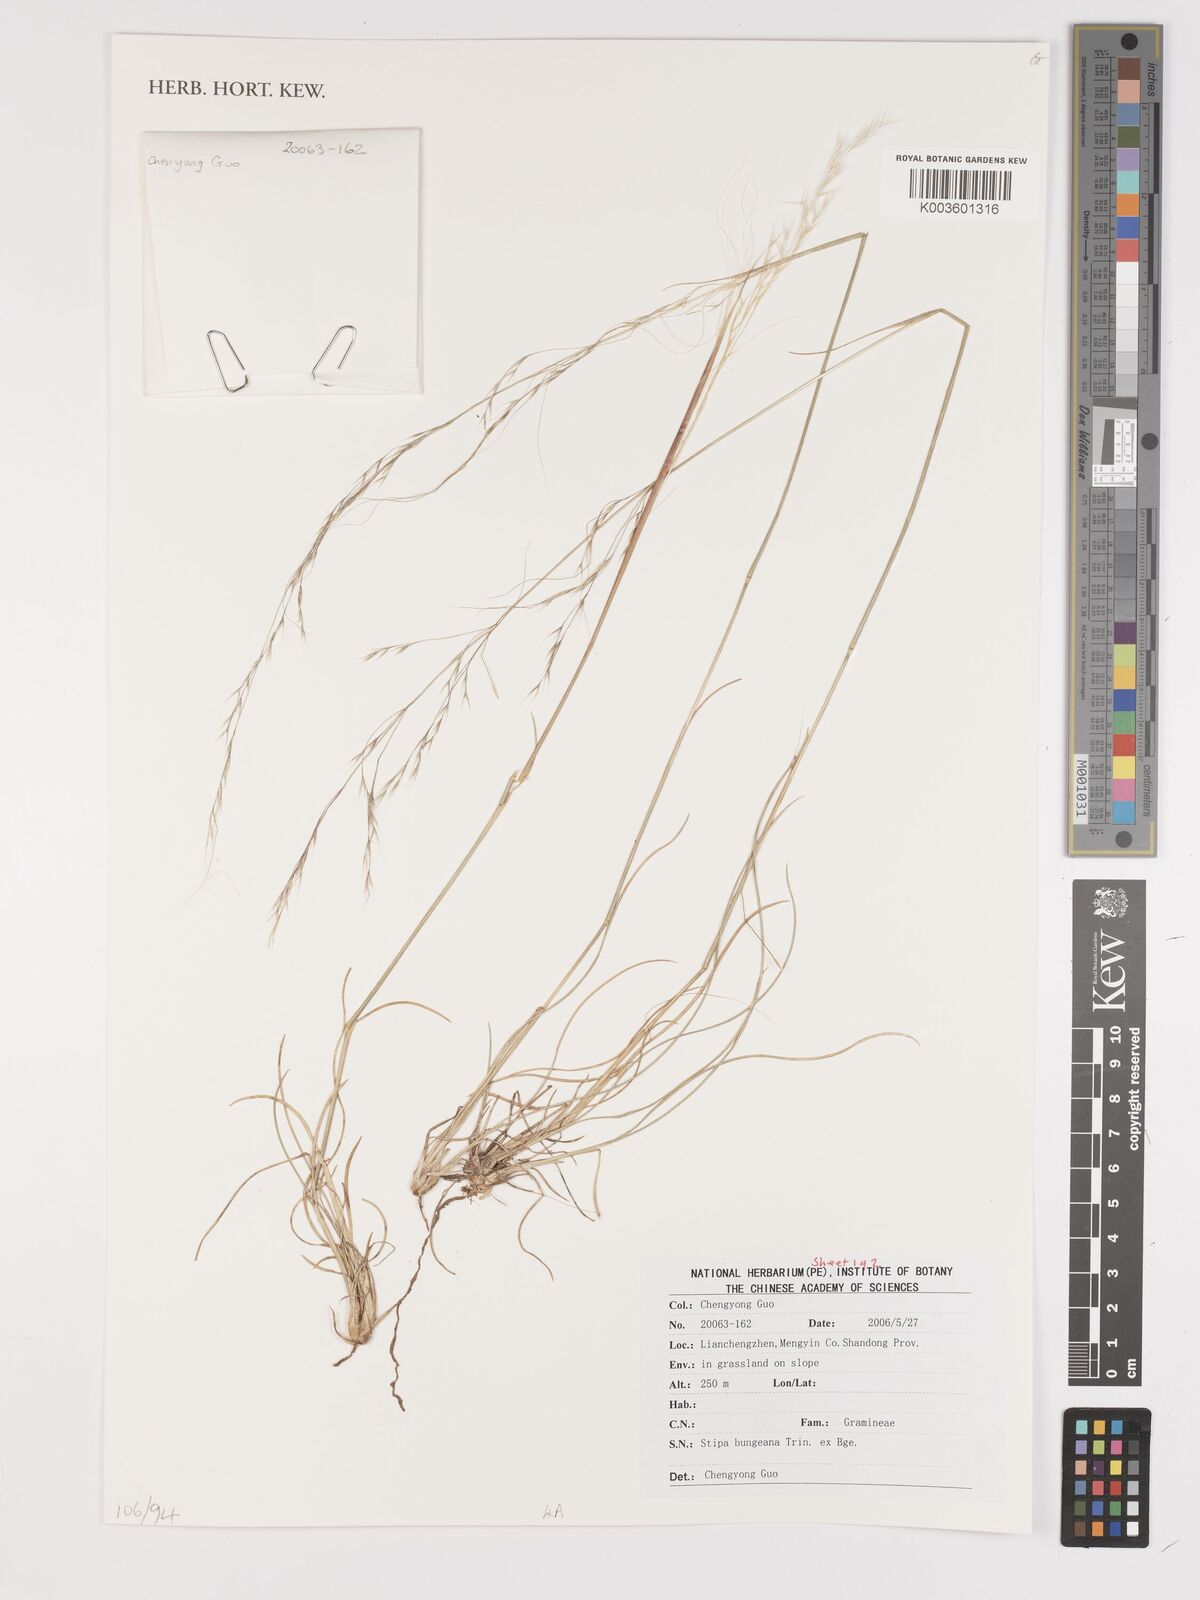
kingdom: Plantae
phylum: Tracheophyta
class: Liliopsida
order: Poales
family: Poaceae
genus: Stipa
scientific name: Stipa bungeana
